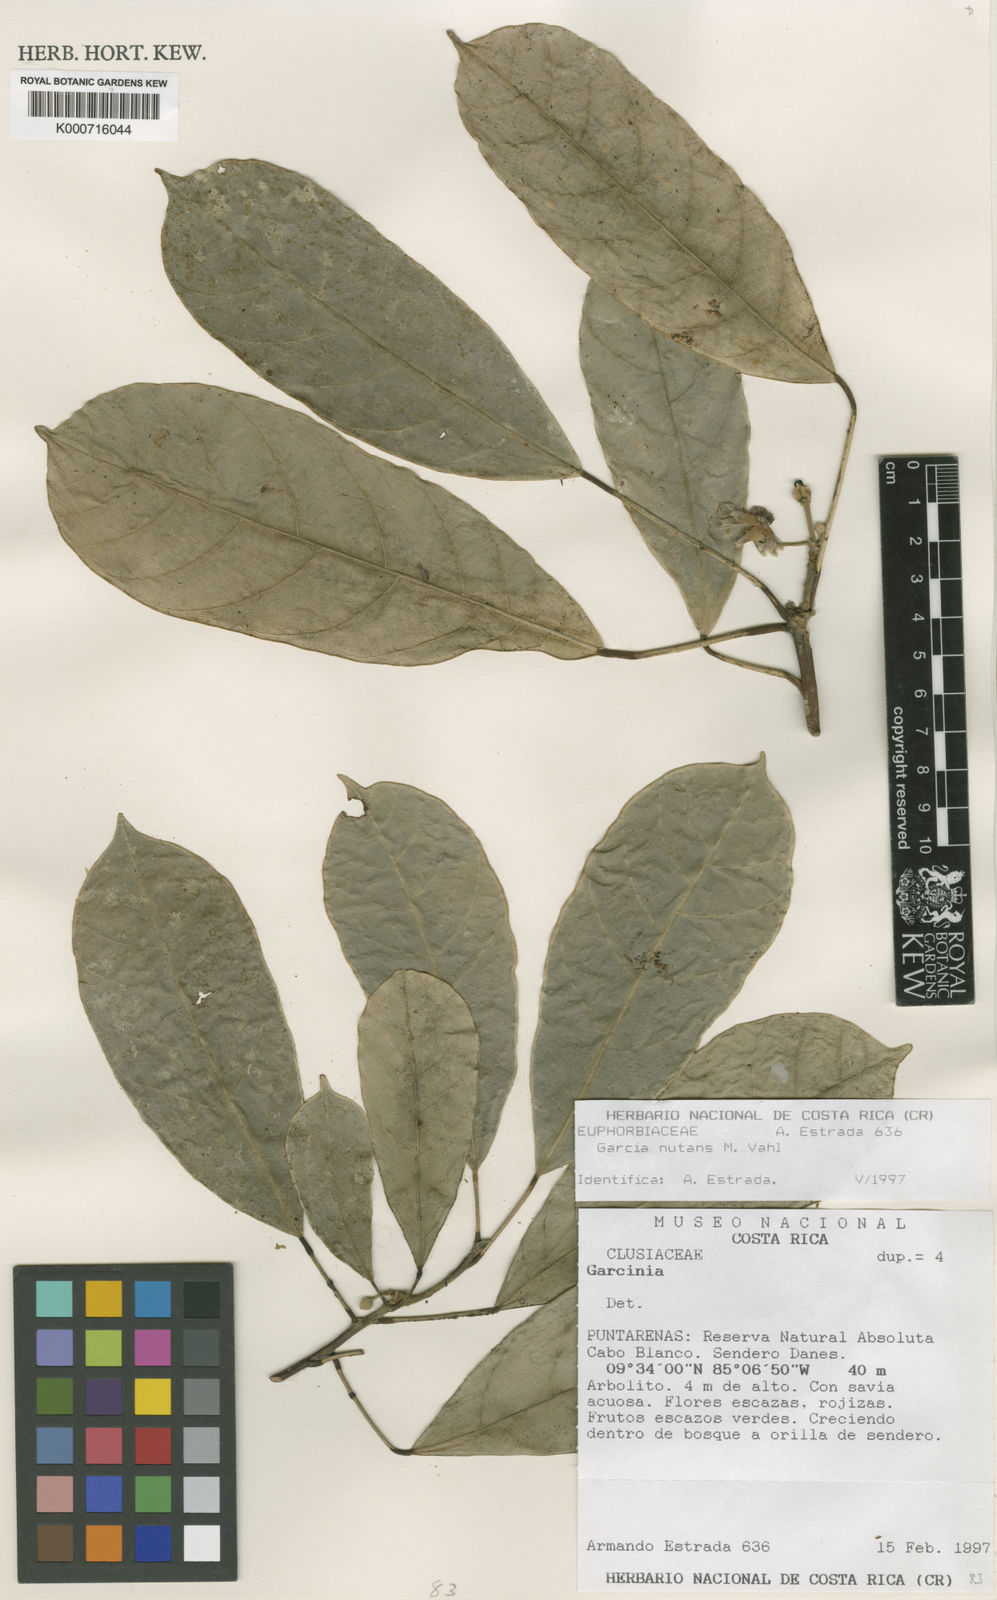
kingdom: Plantae
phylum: Tracheophyta
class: Magnoliopsida
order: Malpighiales
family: Euphorbiaceae
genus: Garcia
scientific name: Garcia nutans
